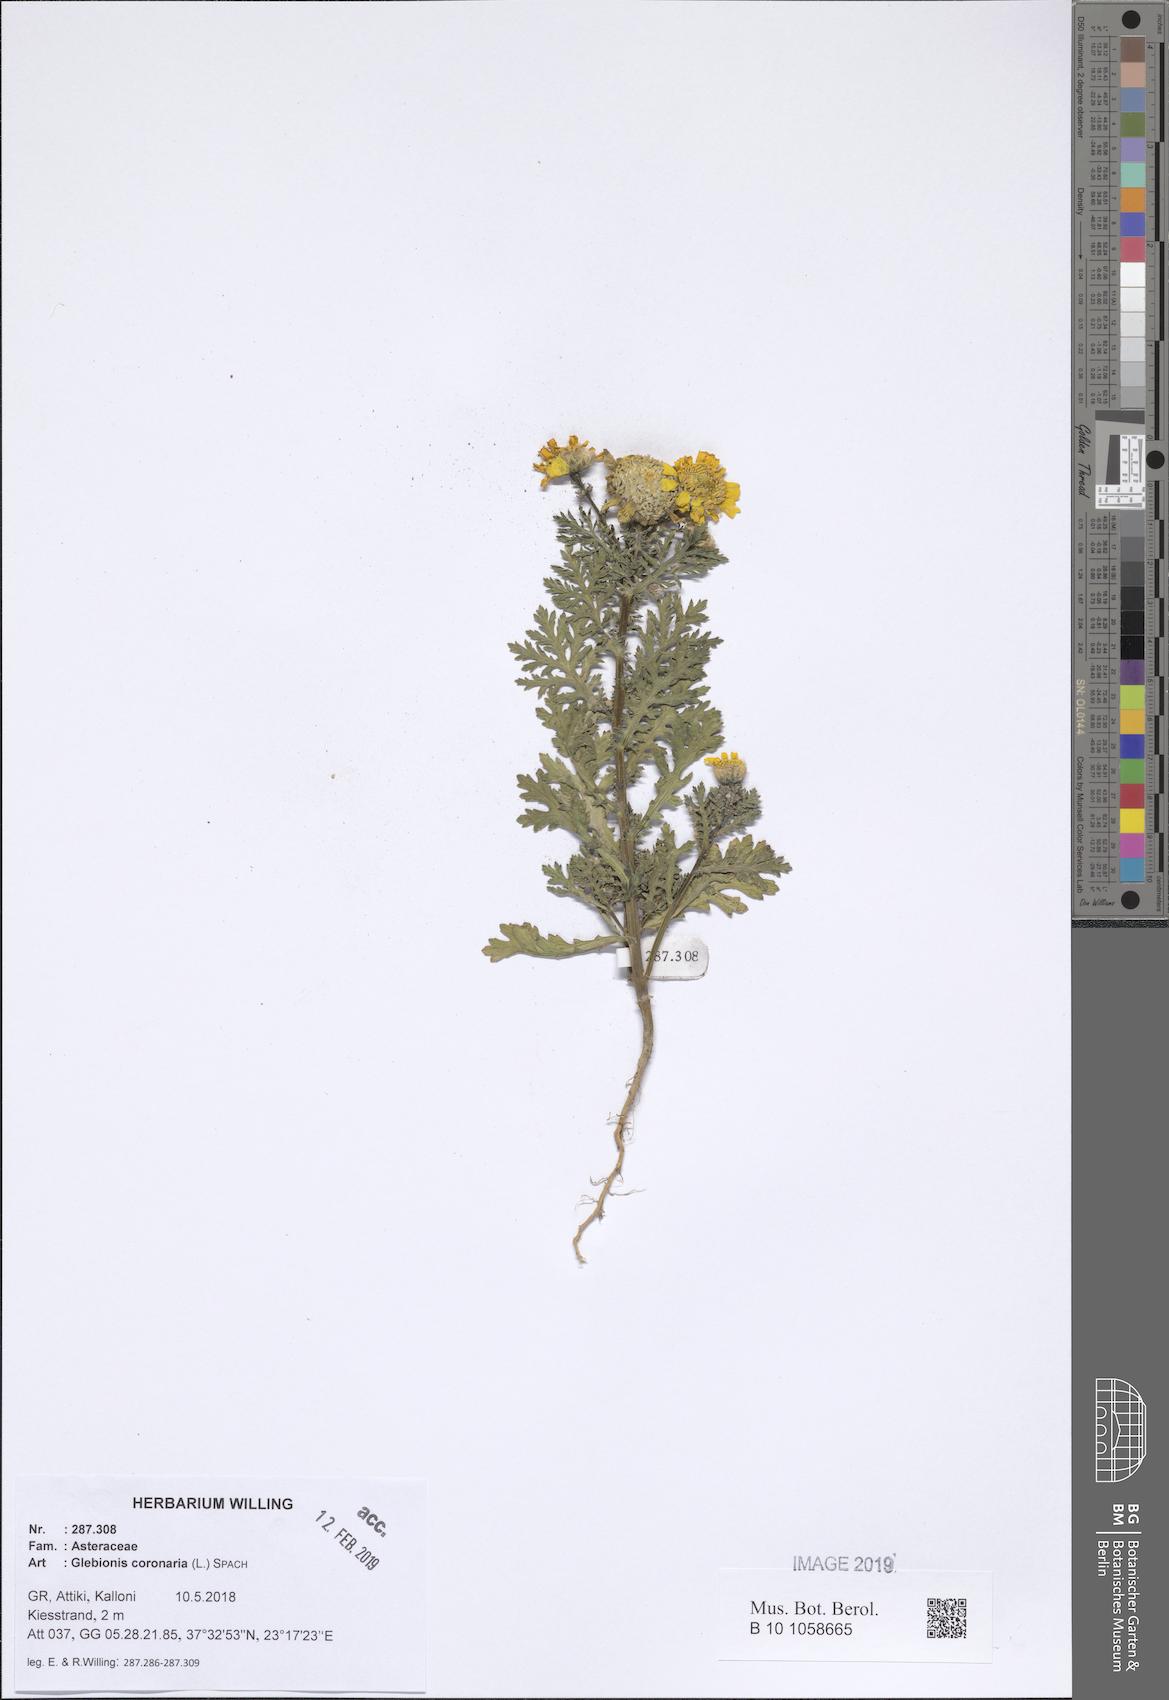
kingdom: Plantae
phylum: Tracheophyta
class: Magnoliopsida
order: Asterales
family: Asteraceae
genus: Glebionis
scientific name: Glebionis coronaria
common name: Crowndaisy
